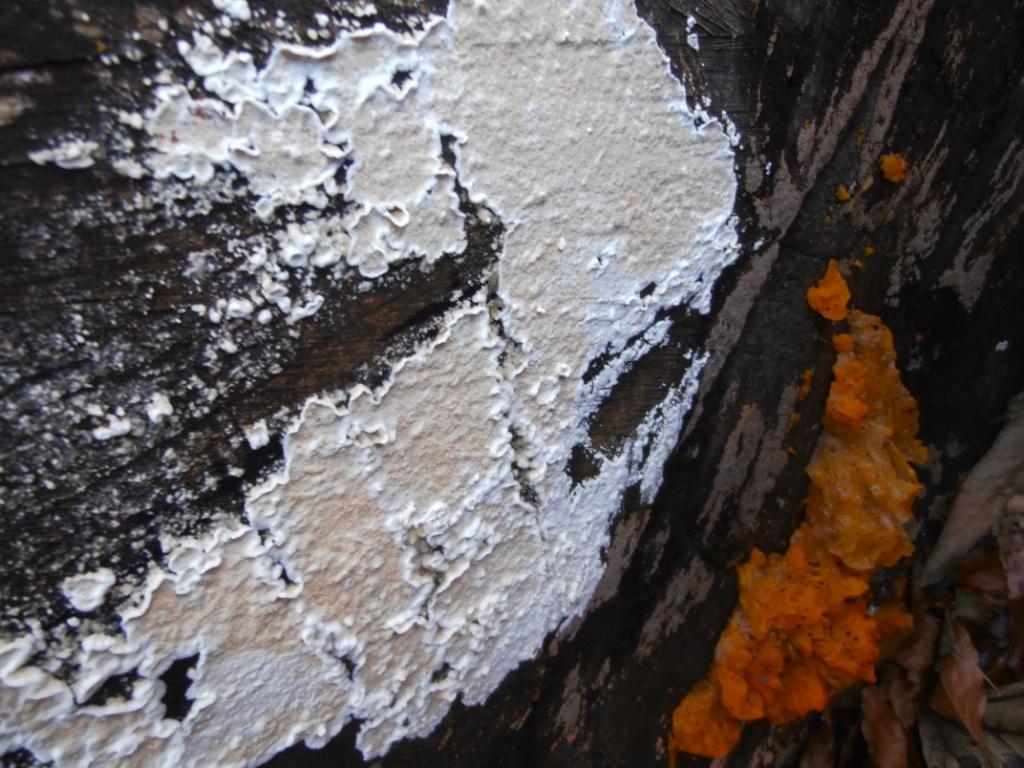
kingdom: Fungi
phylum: Basidiomycota
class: Agaricomycetes
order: Polyporales
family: Irpicaceae
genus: Byssomerulius
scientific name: Byssomerulius corium
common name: læder-åresvamp
